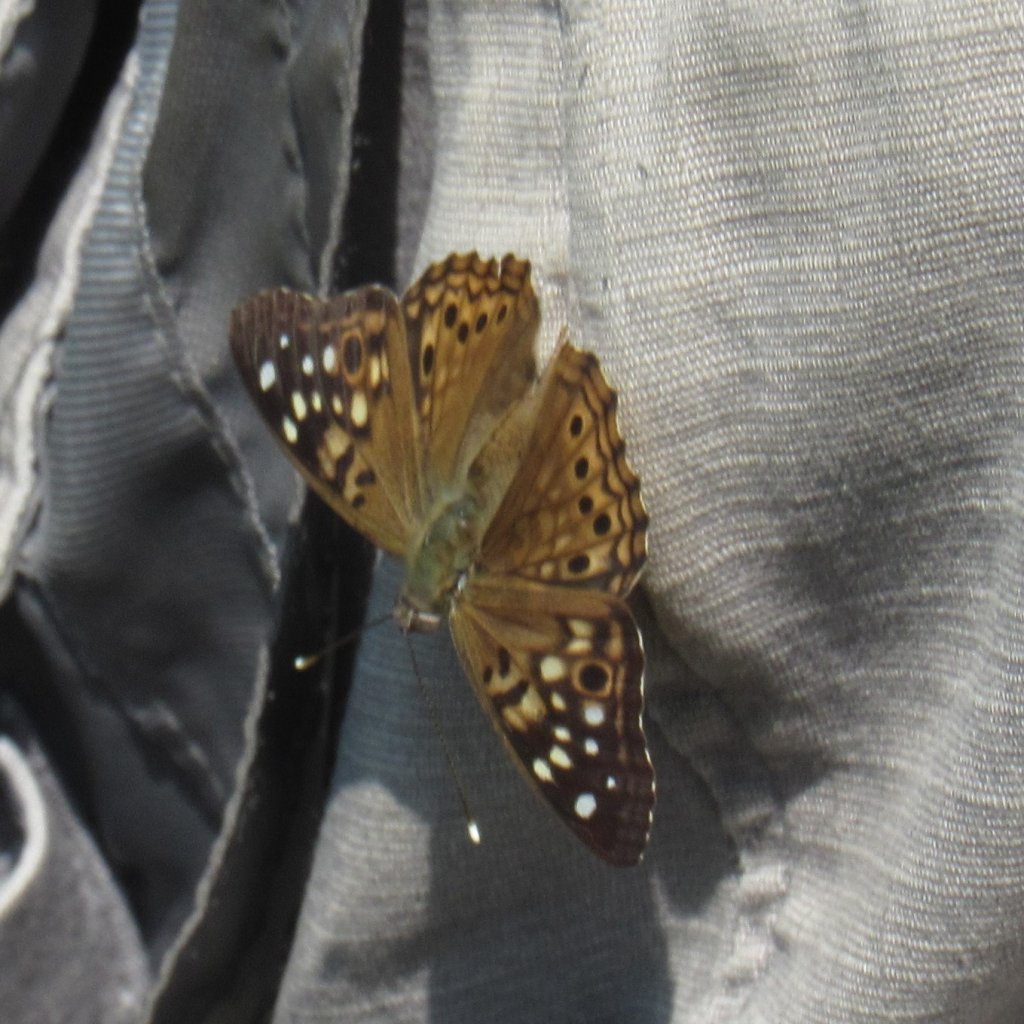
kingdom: Animalia
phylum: Arthropoda
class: Insecta
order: Lepidoptera
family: Nymphalidae
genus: Asterocampa
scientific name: Asterocampa celtis
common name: Hackberry Emperor
